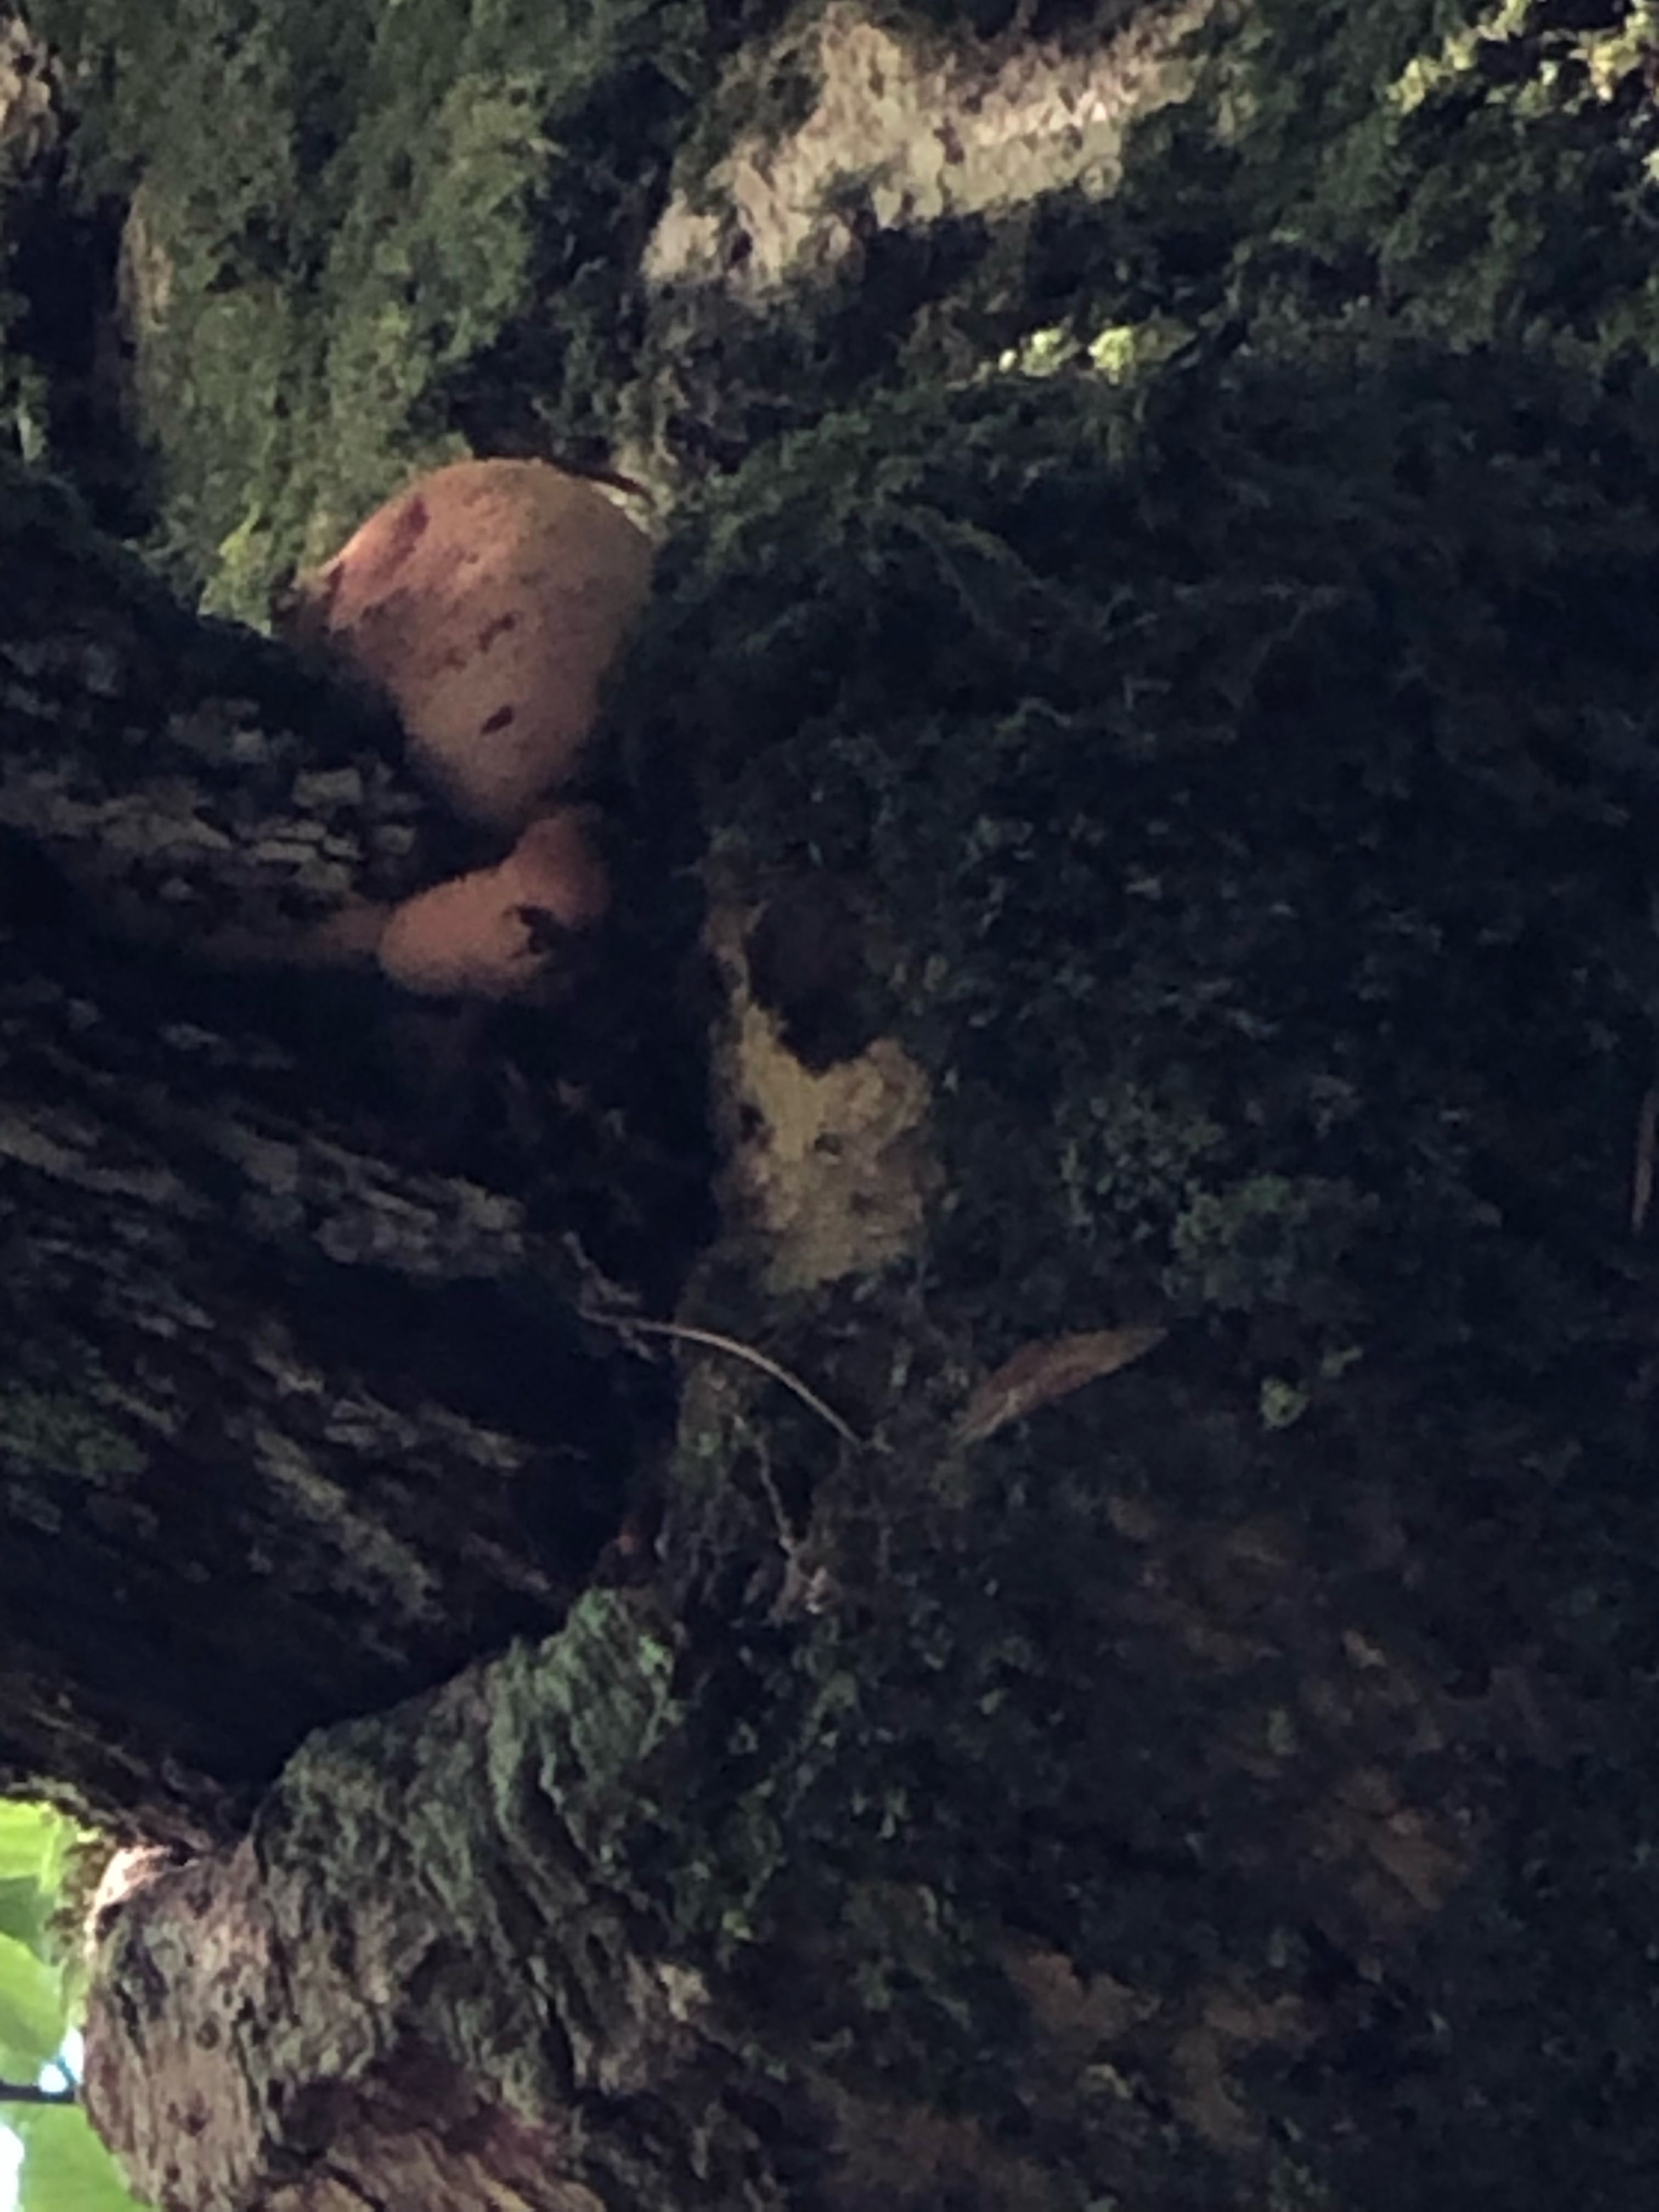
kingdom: Fungi
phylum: Basidiomycota
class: Agaricomycetes
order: Agaricales
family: Fistulinaceae
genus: Fistulina
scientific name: Fistulina hepatica
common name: oksetunge
